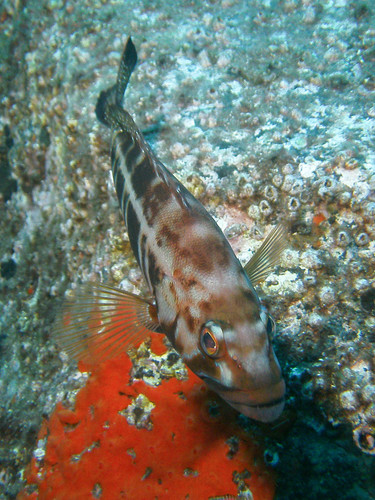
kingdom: Animalia
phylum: Chordata
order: Perciformes
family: Serranidae
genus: Serranus
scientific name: Serranus atricauda
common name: Blacktail comber
